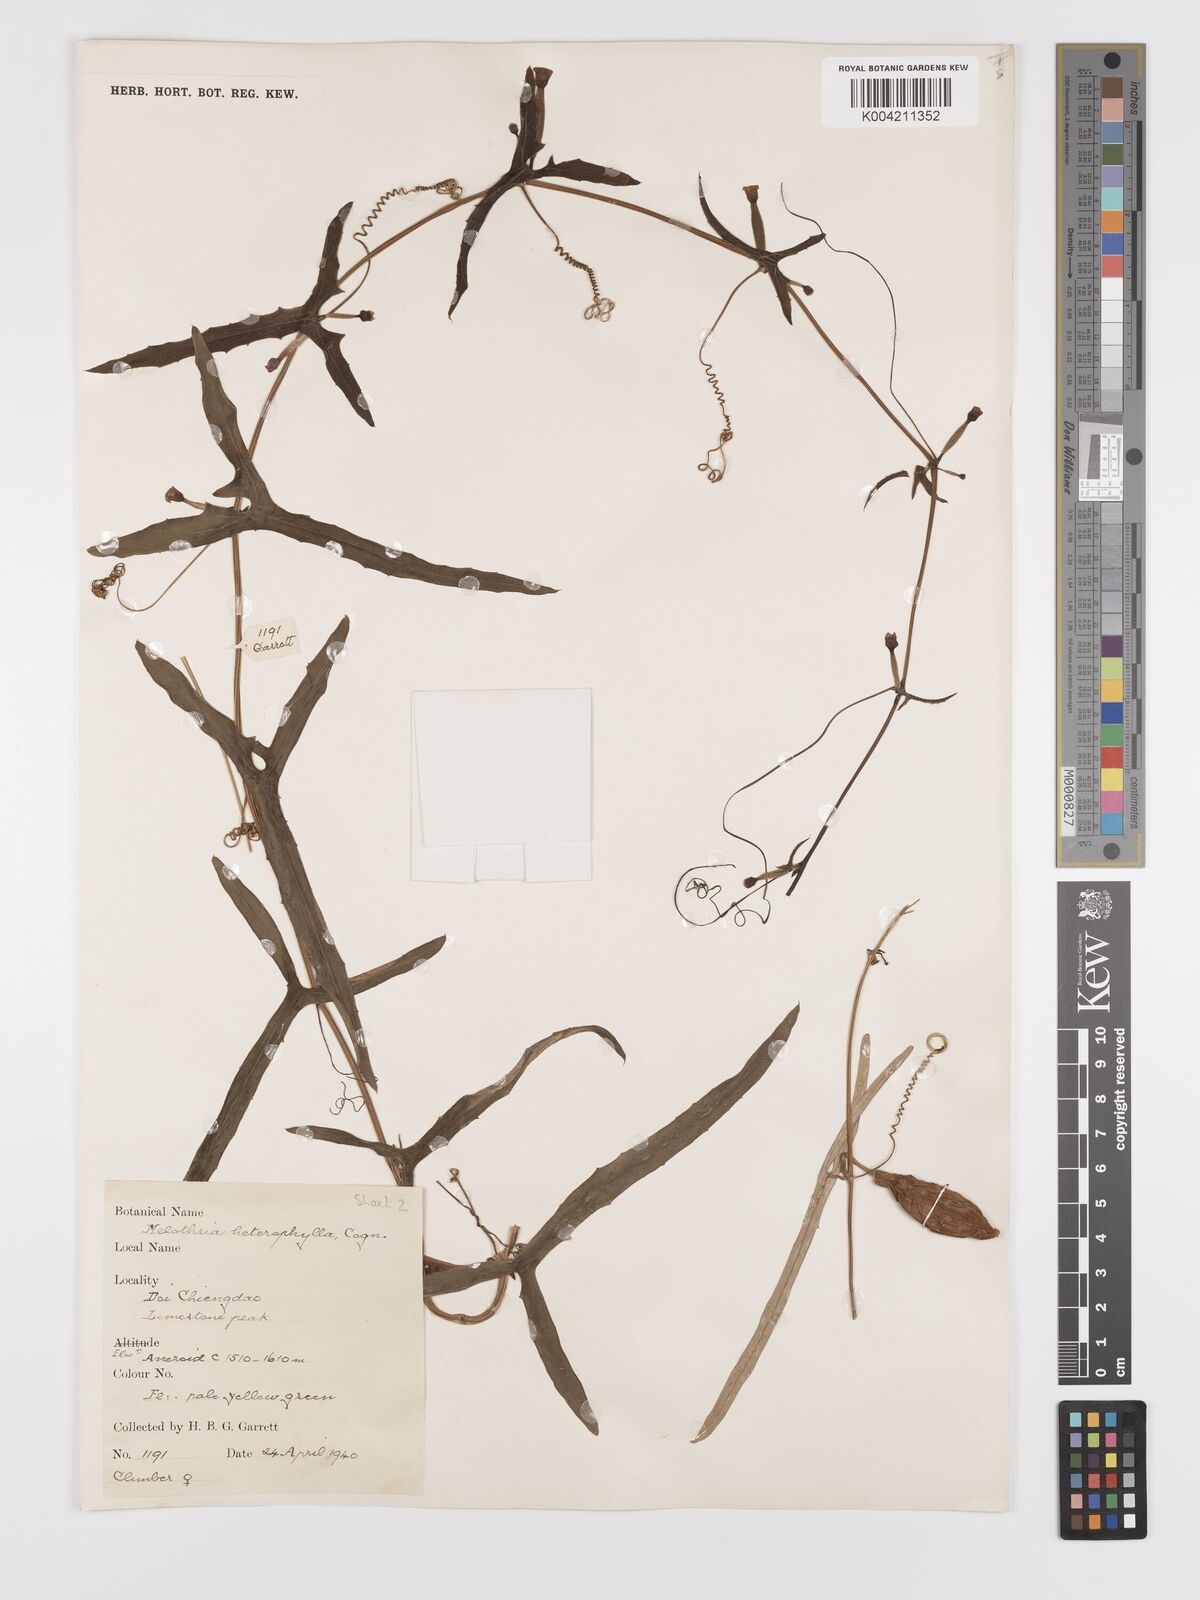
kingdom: Plantae
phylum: Tracheophyta
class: Magnoliopsida
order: Cucurbitales
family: Cucurbitaceae
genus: Solena
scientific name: Solena amplexicaulis
